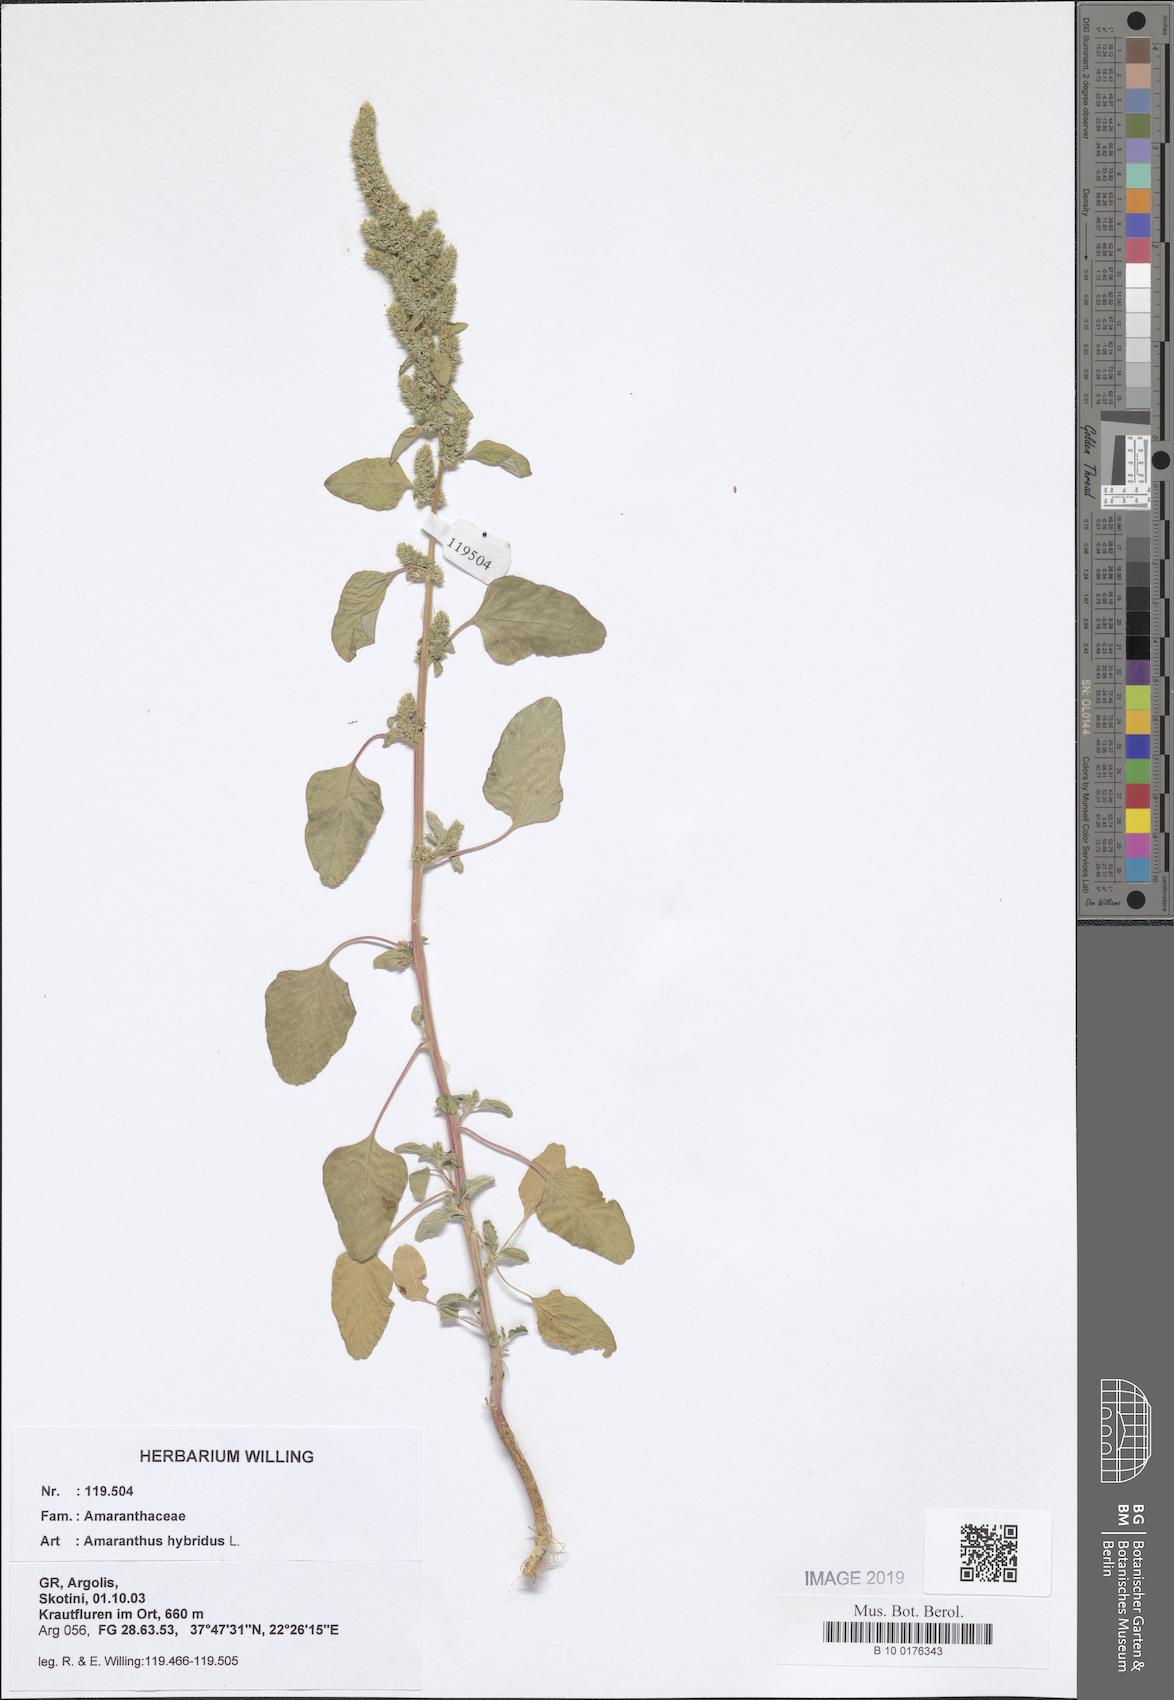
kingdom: Plantae
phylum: Tracheophyta
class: Magnoliopsida
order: Caryophyllales
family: Amaranthaceae
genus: Amaranthus
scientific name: Amaranthus hybridus
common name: Green amaranth
